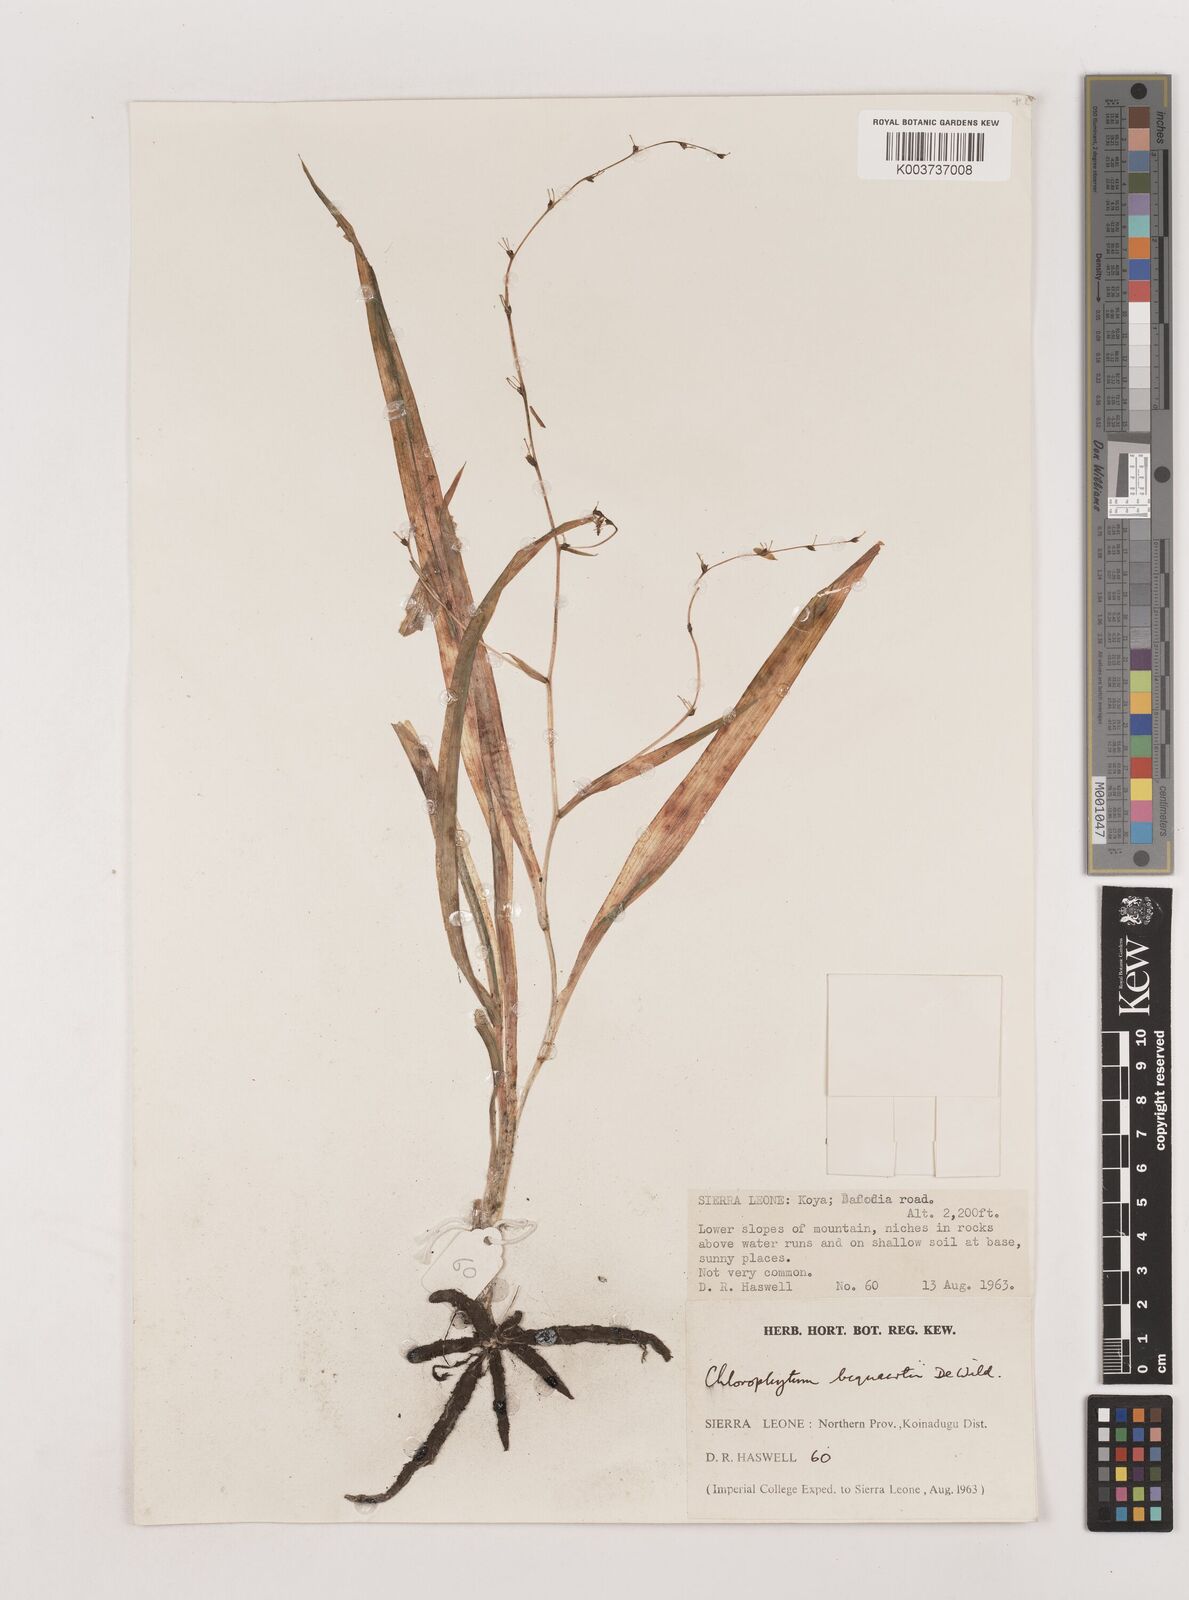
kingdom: Plantae
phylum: Tracheophyta
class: Liliopsida
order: Asparagales
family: Asparagaceae
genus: Chlorophytum
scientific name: Chlorophytum gallabatense
